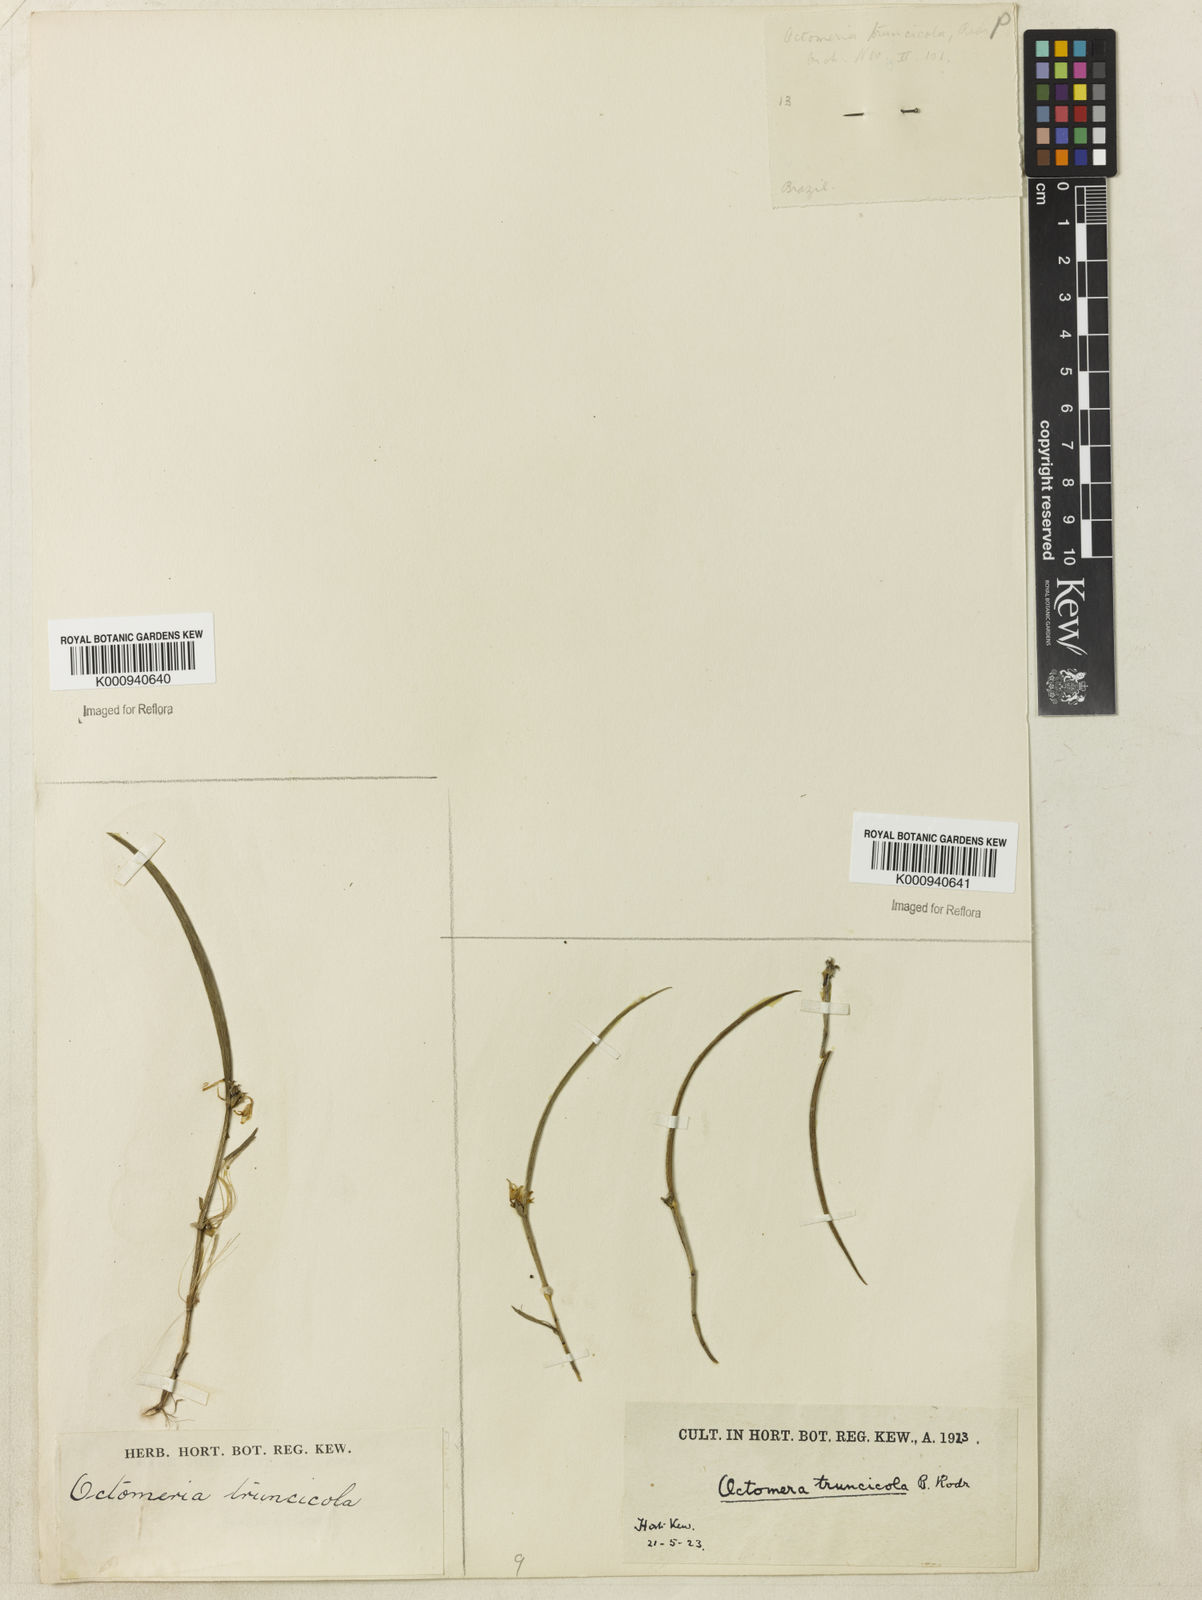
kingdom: Plantae
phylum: Tracheophyta
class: Liliopsida
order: Asparagales
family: Orchidaceae
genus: Octomeria
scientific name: Octomeria truncicola
